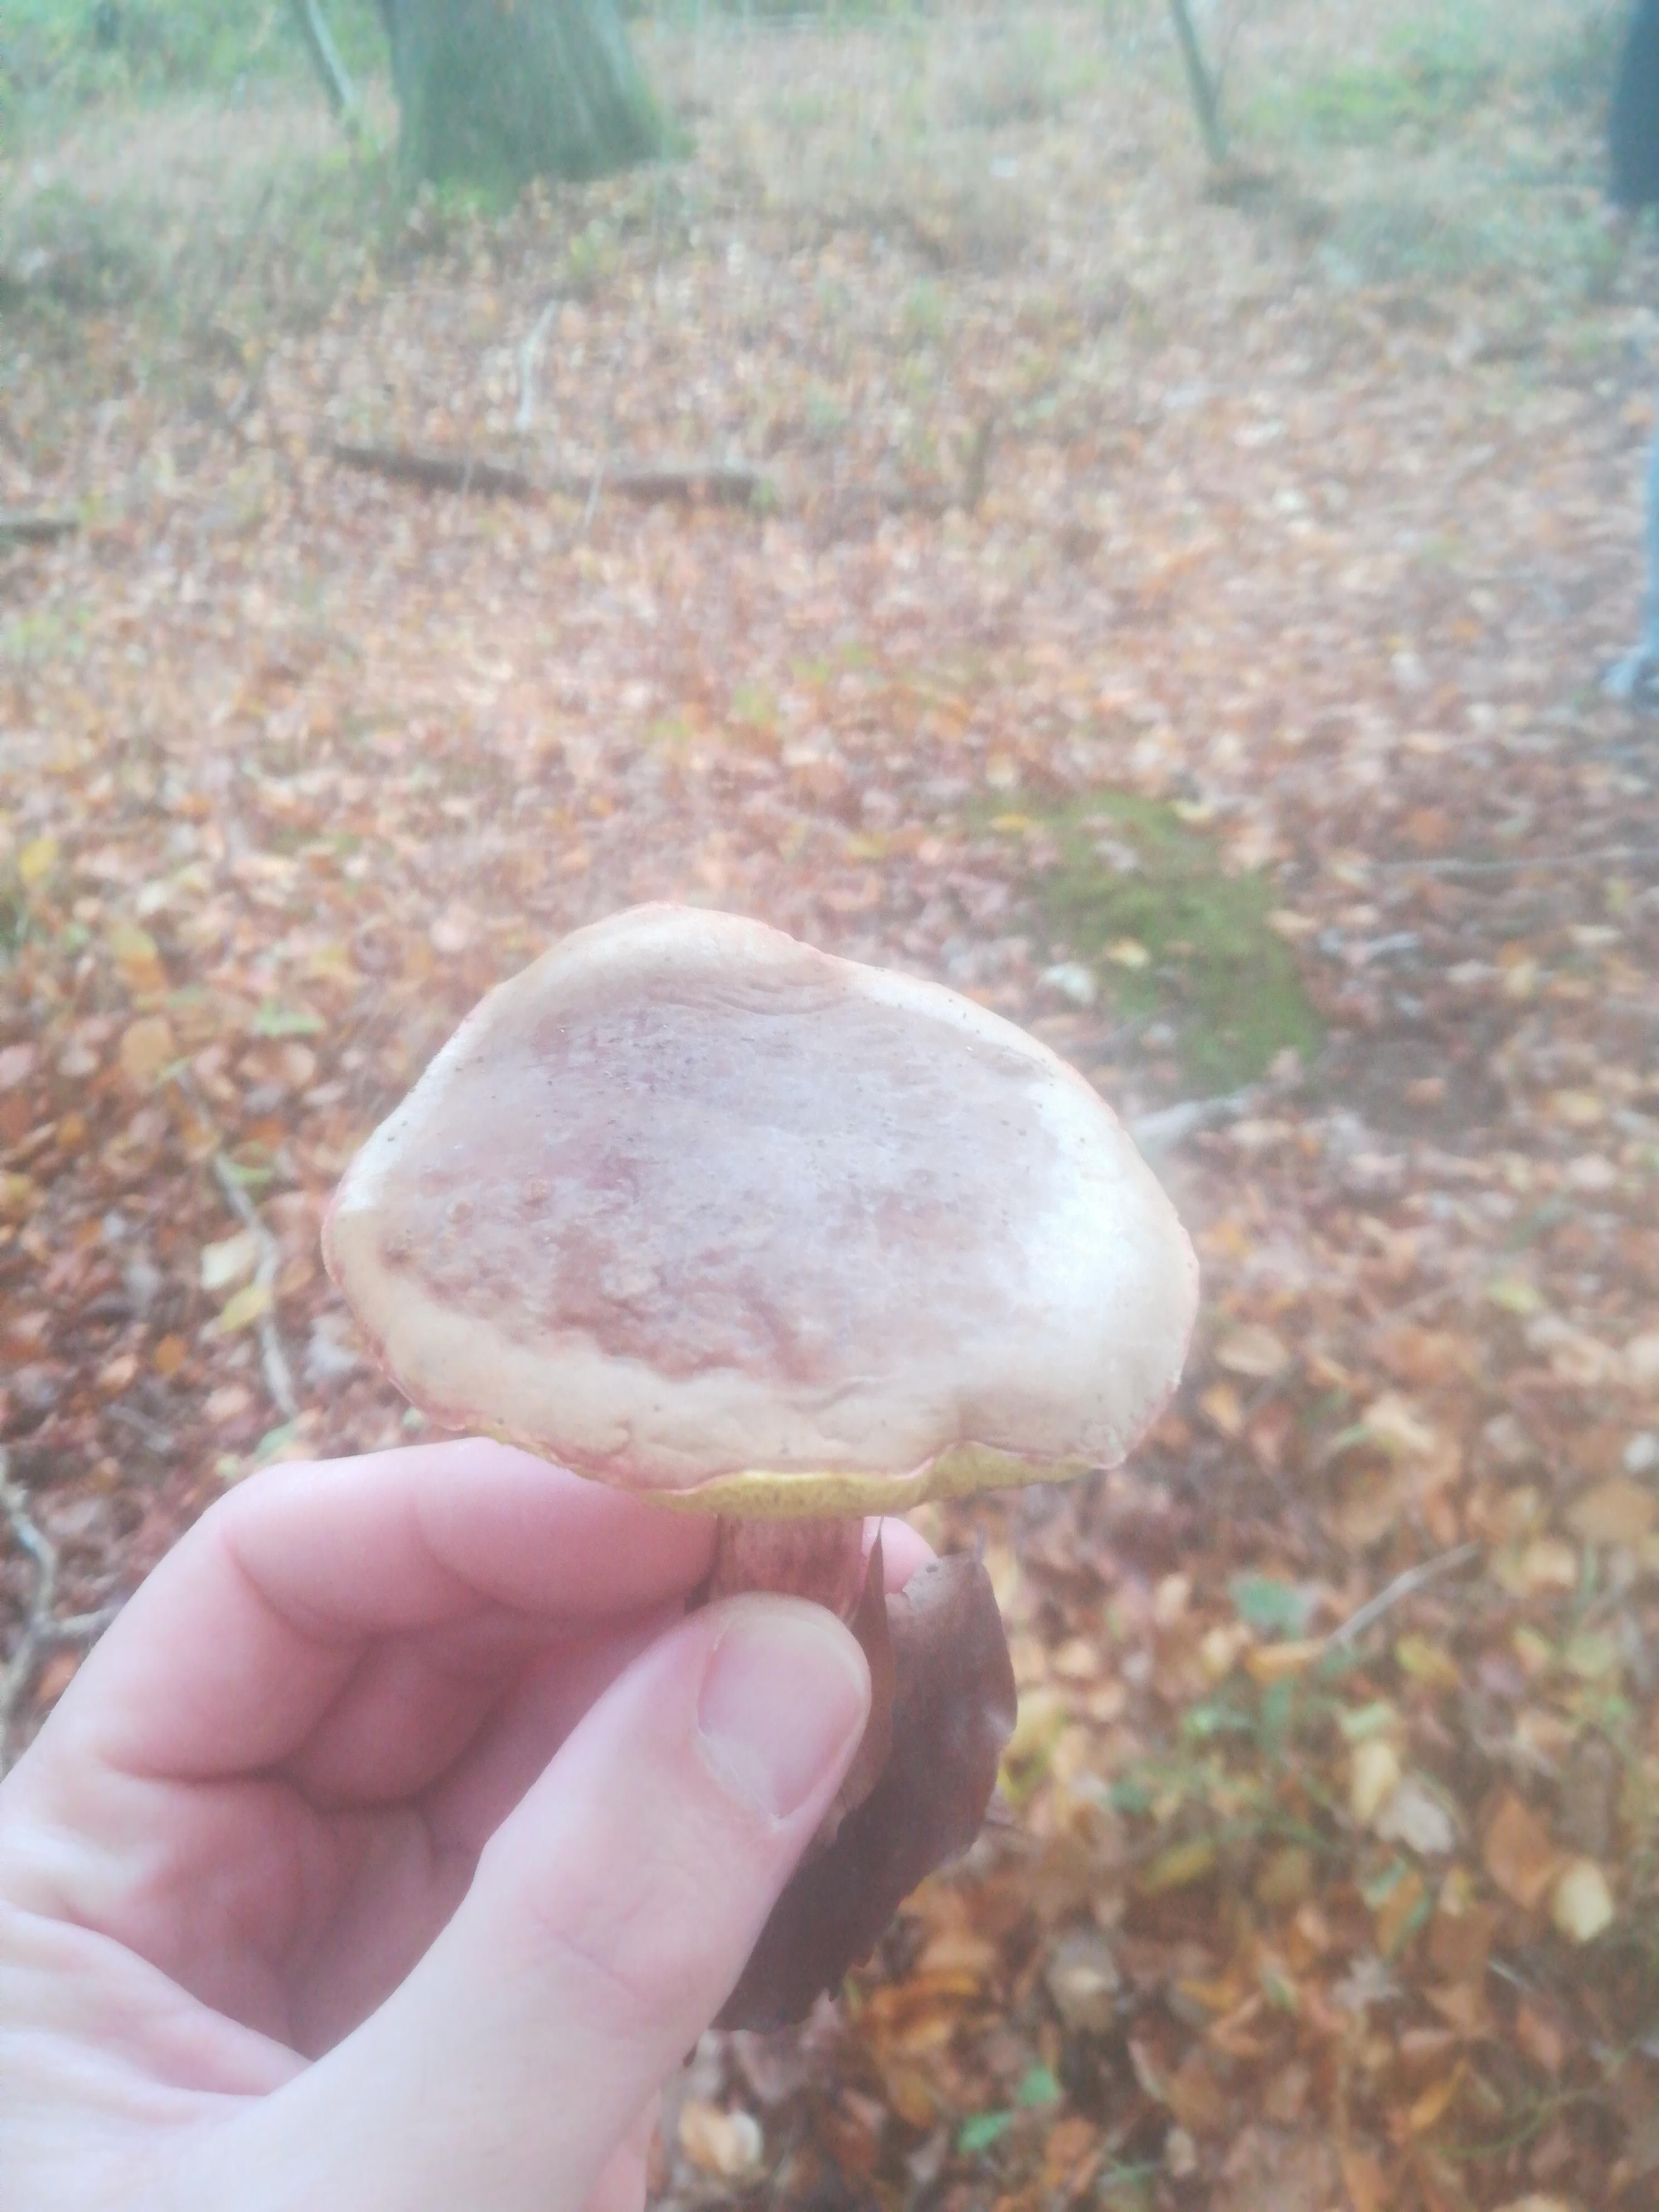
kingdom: Fungi
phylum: Basidiomycota
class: Agaricomycetes
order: Boletales
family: Boletaceae
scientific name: Boletaceae
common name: rørhatfamilien
